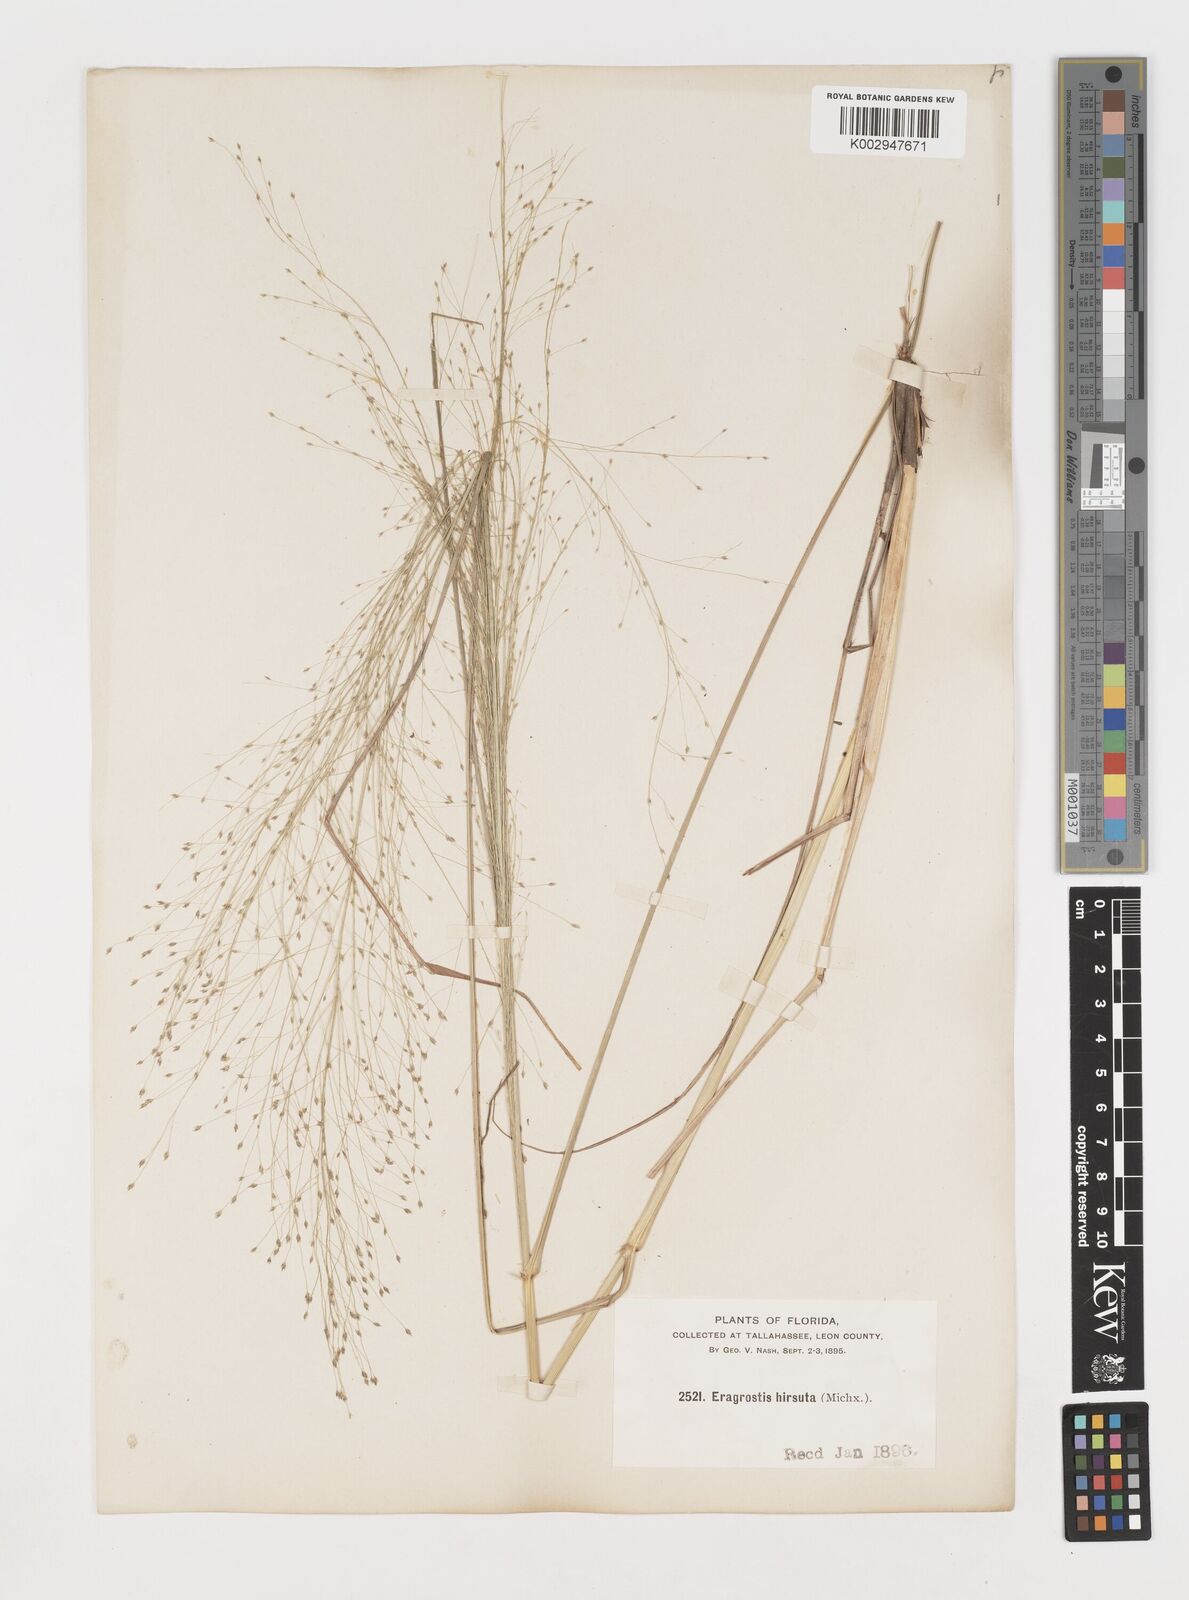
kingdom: Plantae
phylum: Tracheophyta
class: Liliopsida
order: Poales
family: Poaceae
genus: Eragrostis
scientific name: Eragrostis capillaris
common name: Hair-like lovegrass
